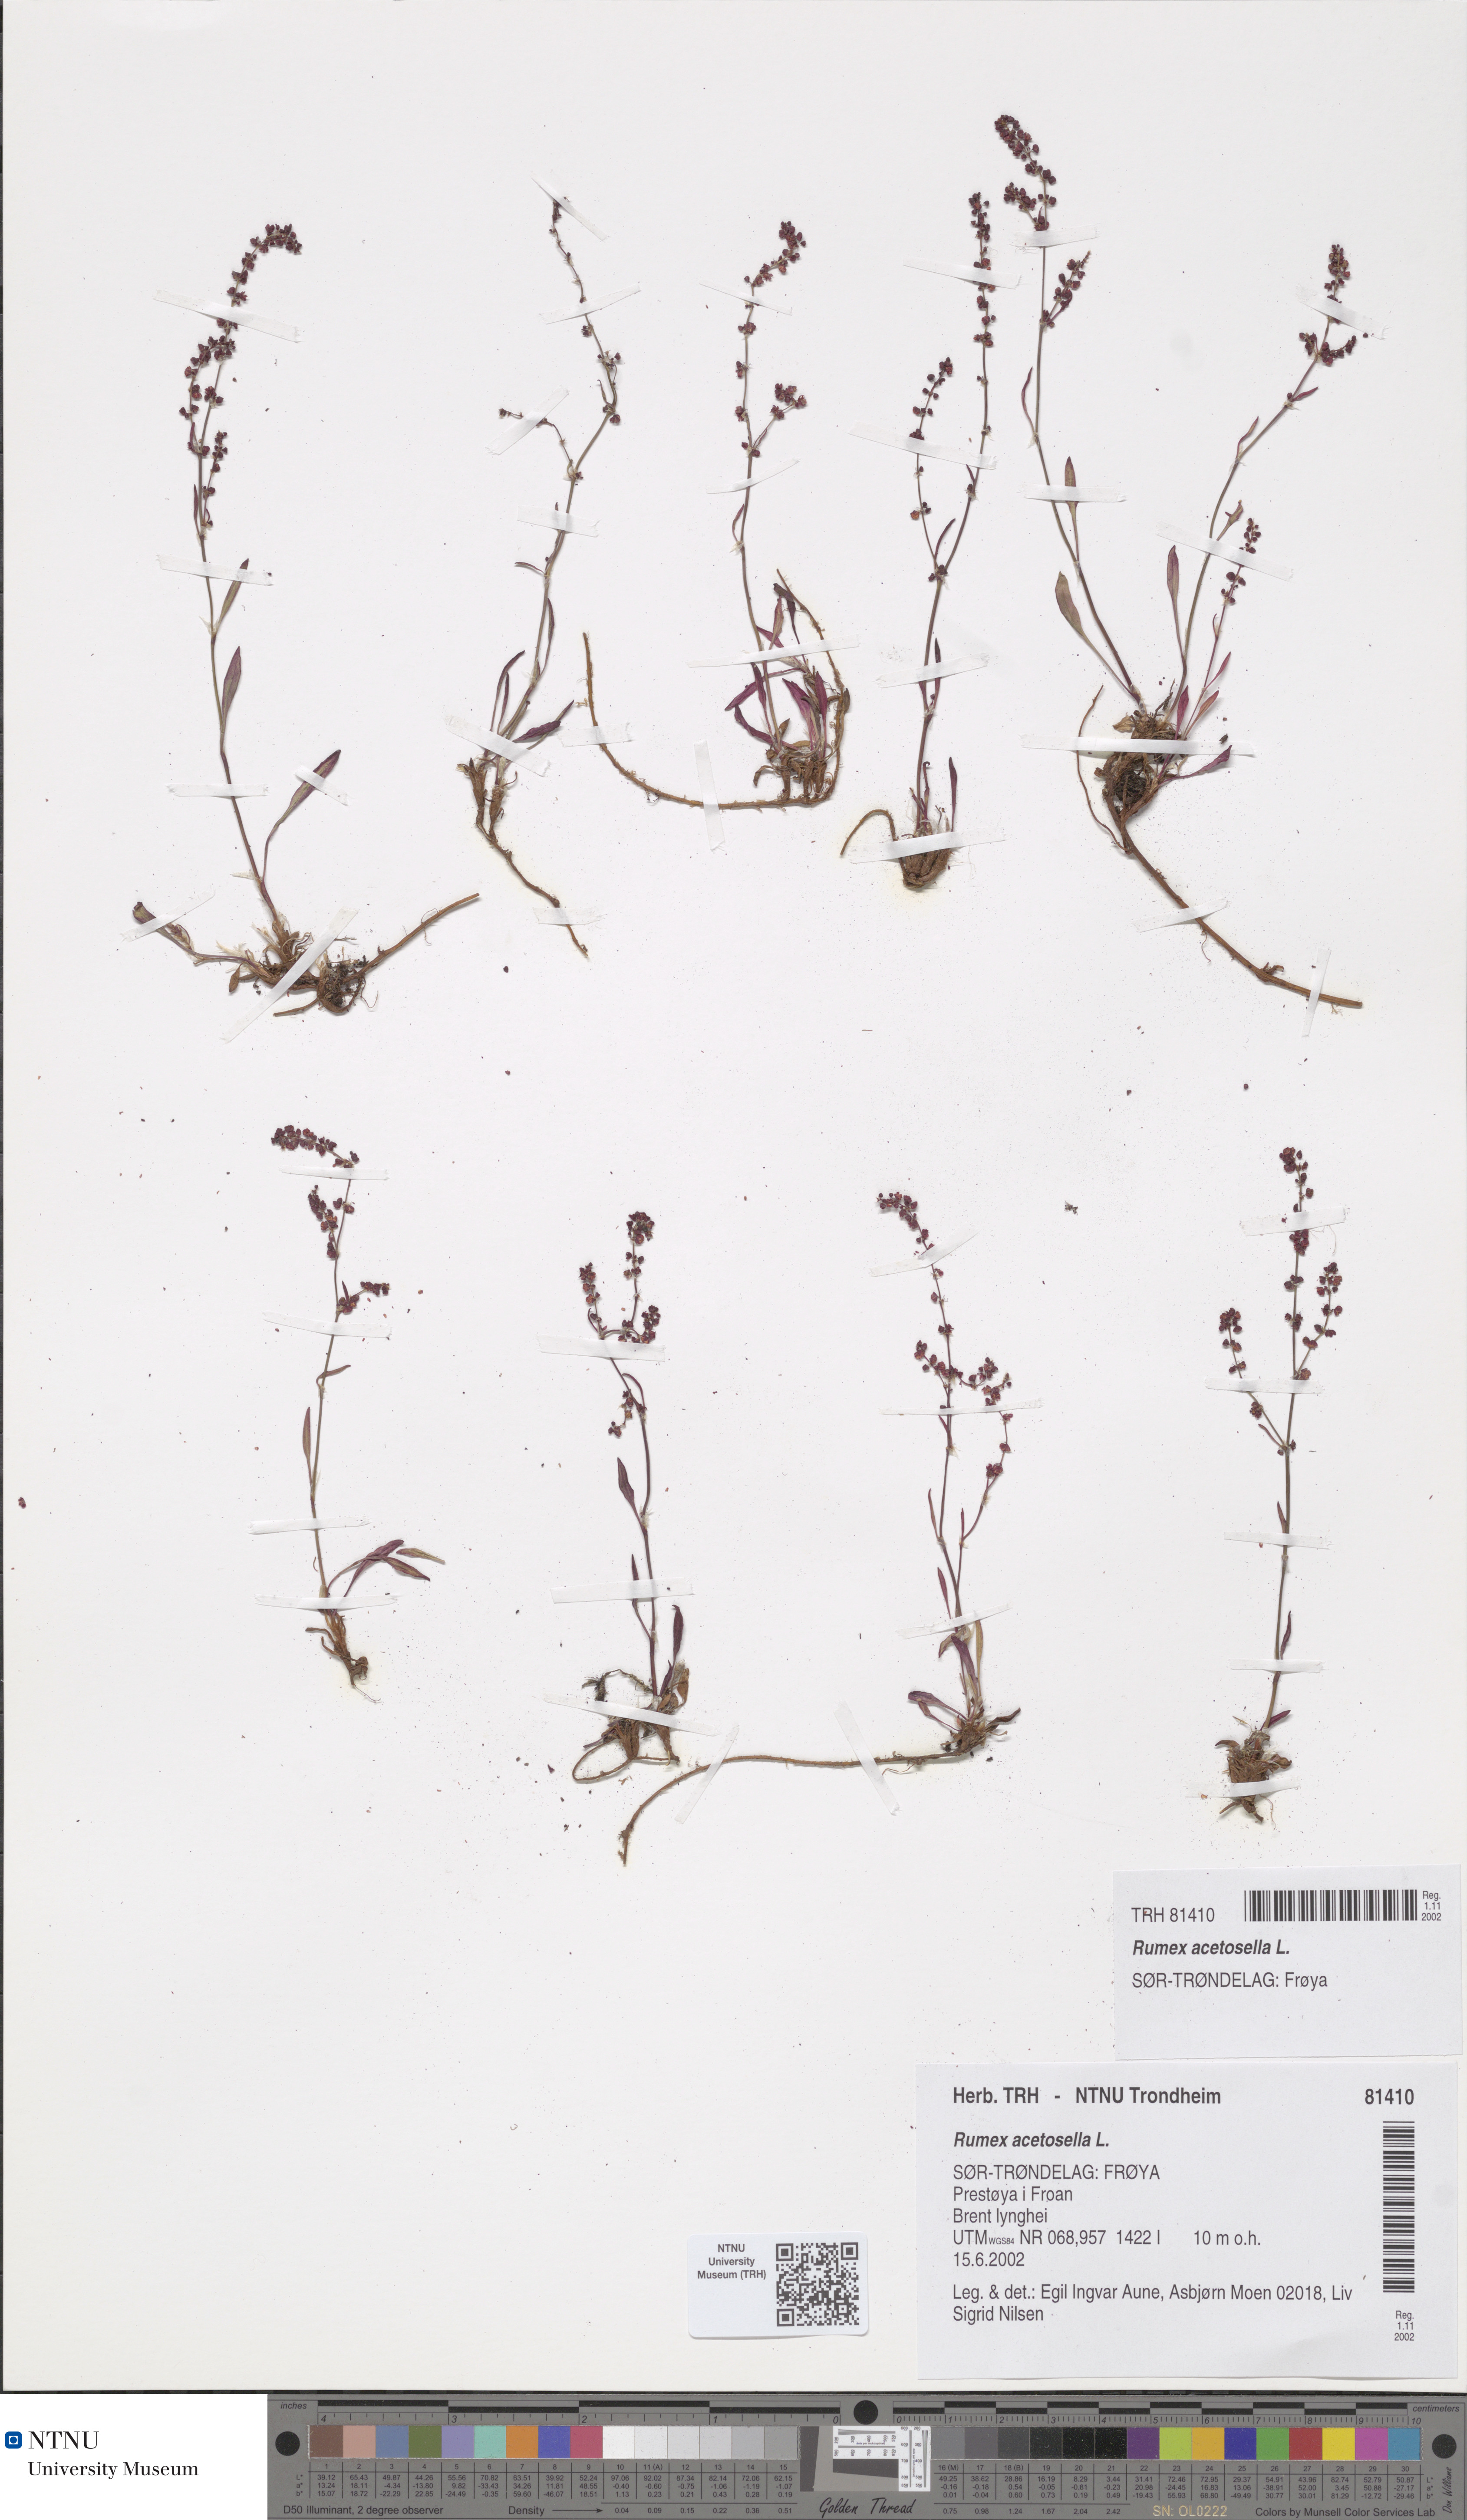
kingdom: Plantae
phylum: Tracheophyta
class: Magnoliopsida
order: Caryophyllales
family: Polygonaceae
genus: Rumex
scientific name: Rumex acetosella
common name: Common sheep sorrel
